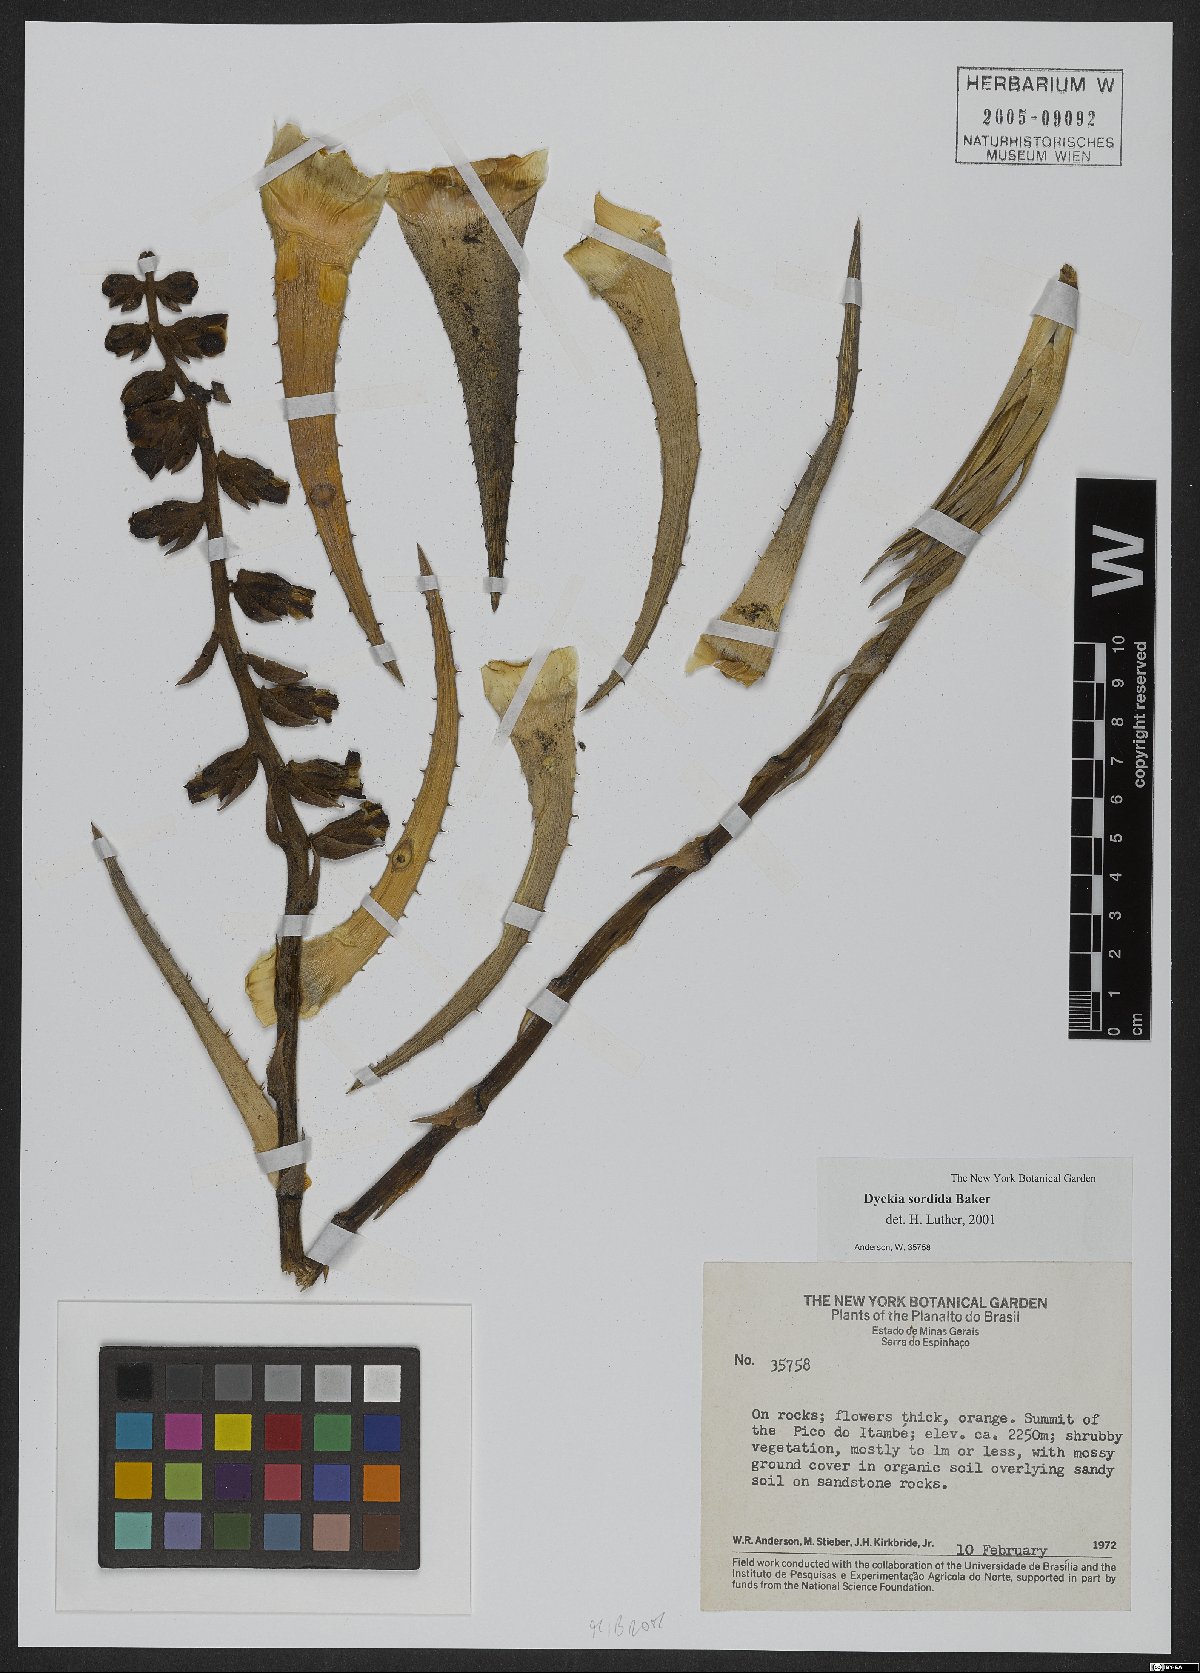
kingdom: Plantae
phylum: Tracheophyta
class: Liliopsida
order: Poales
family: Bromeliaceae
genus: Dyckia
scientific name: Dyckia sordida
